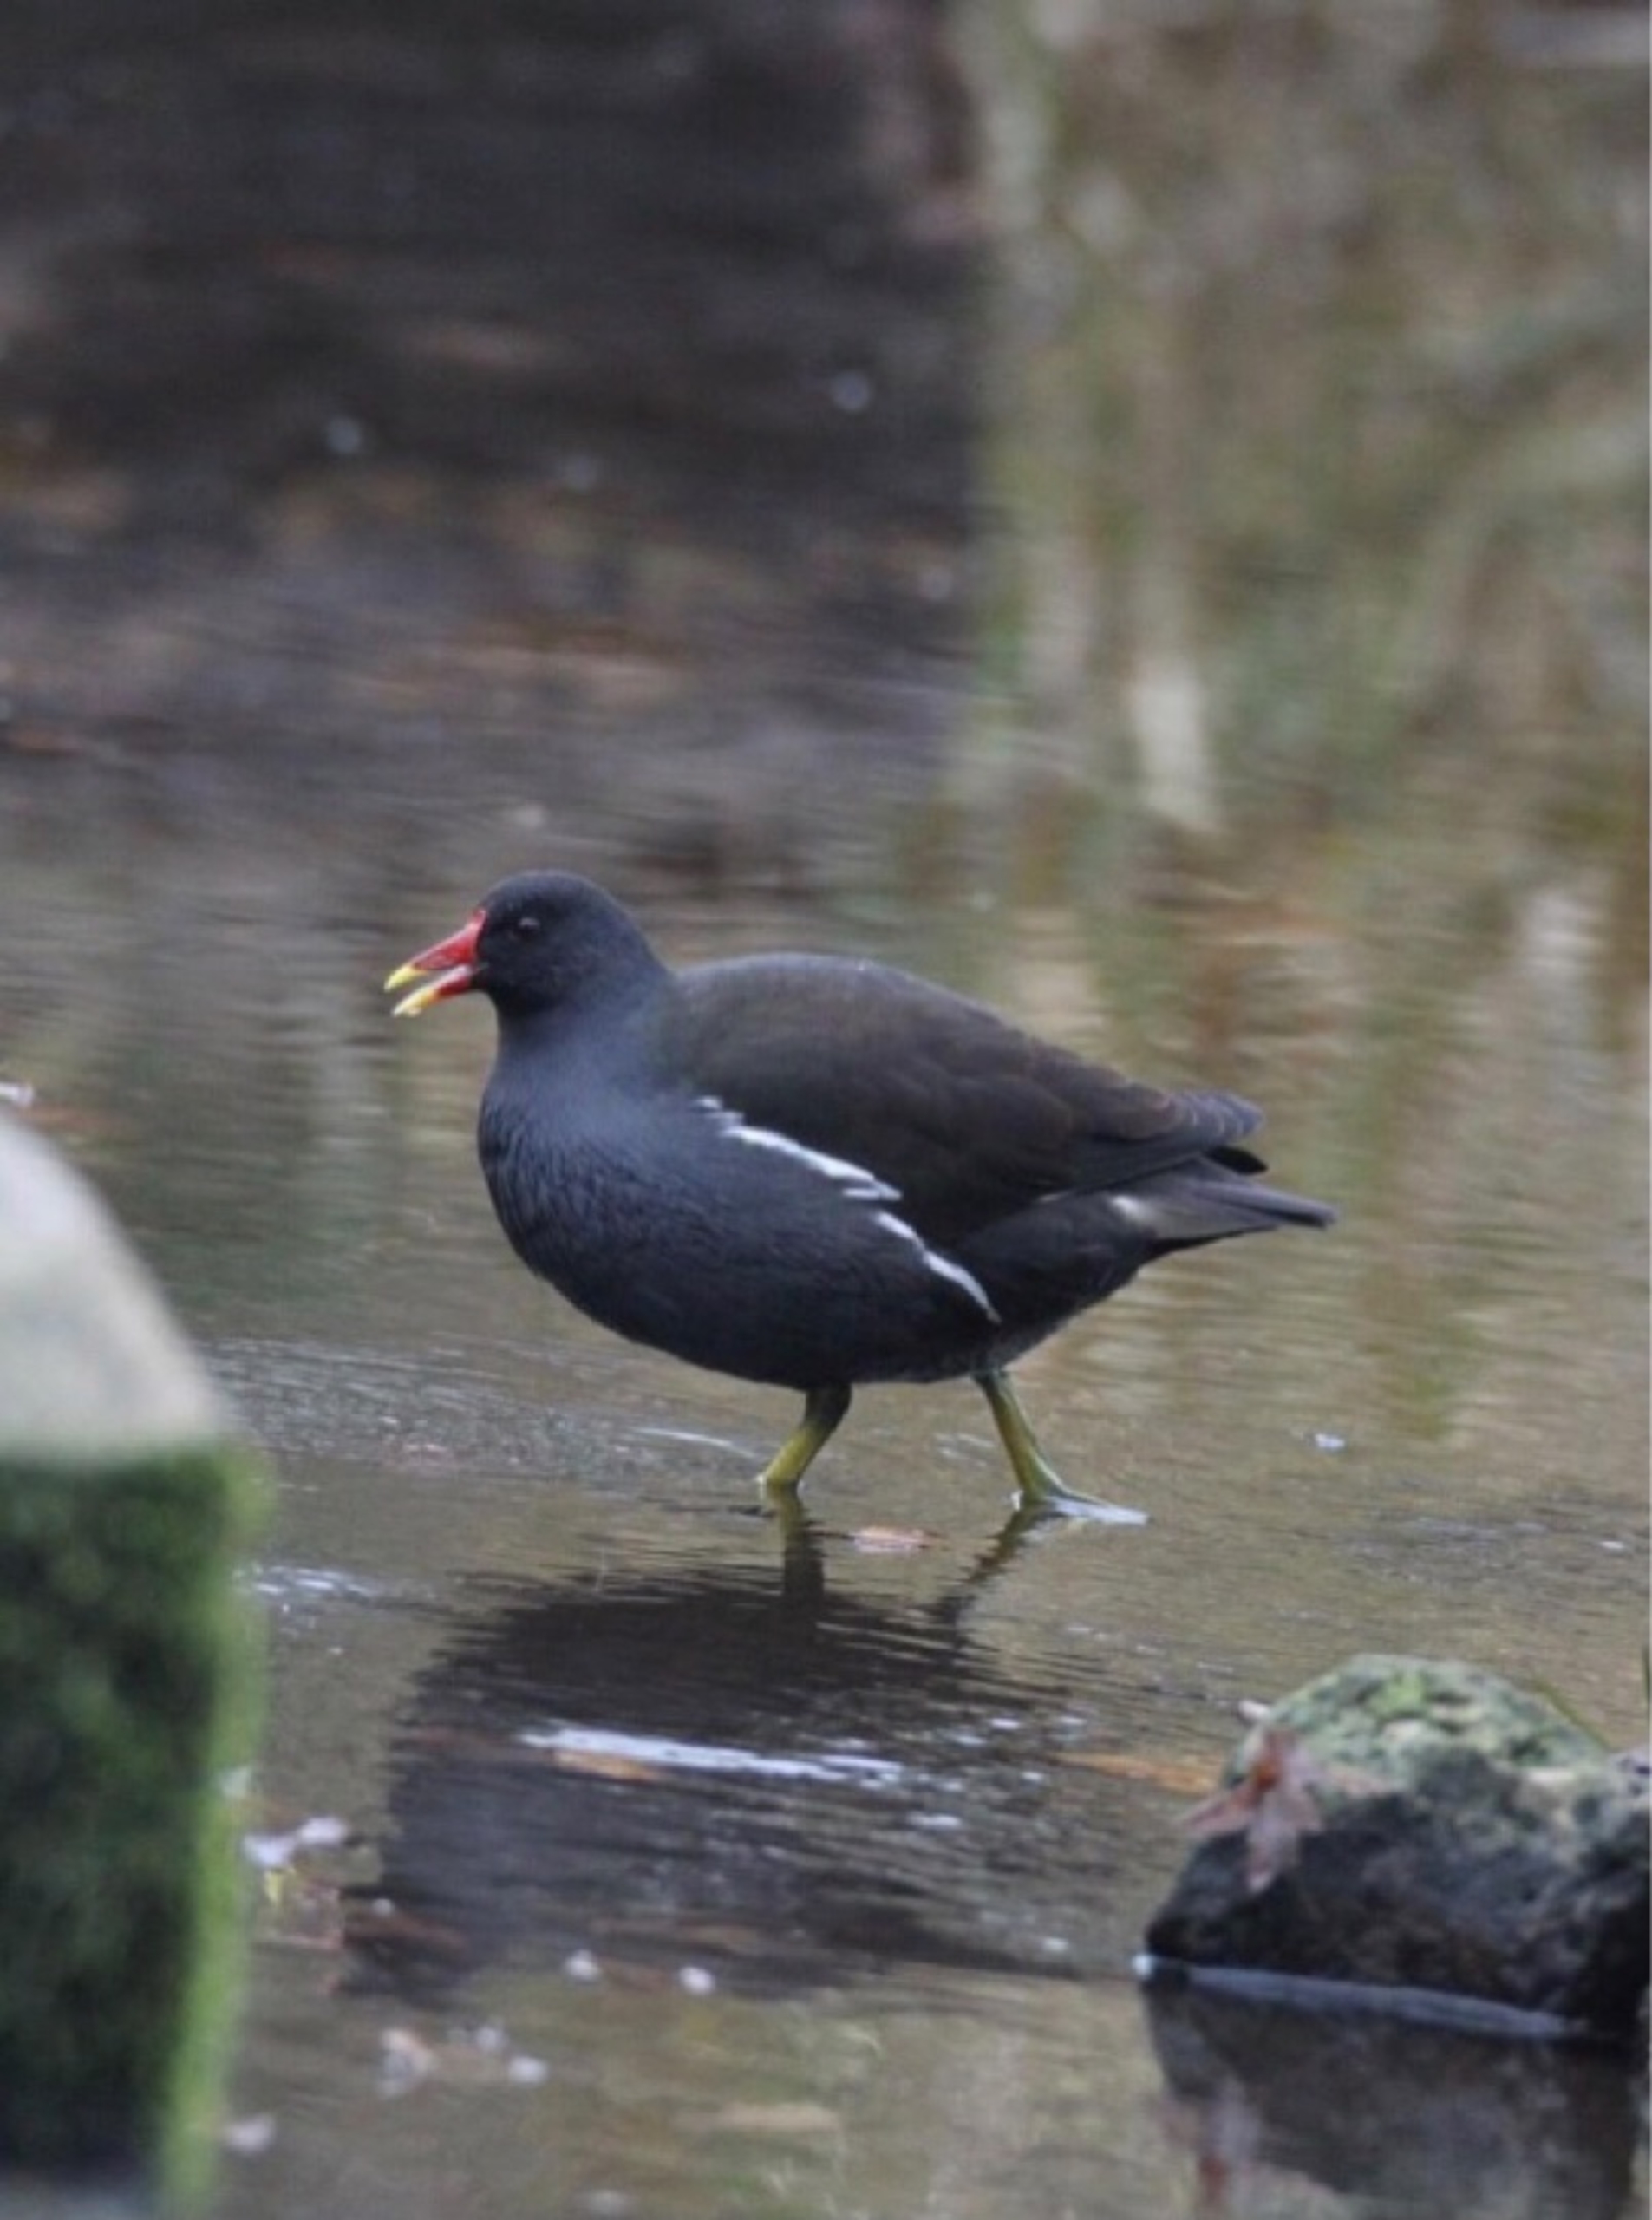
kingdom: Animalia
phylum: Chordata
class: Aves
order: Gruiformes
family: Rallidae
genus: Gallinula
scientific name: Gallinula chloropus
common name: Grønbenet rørhøne
